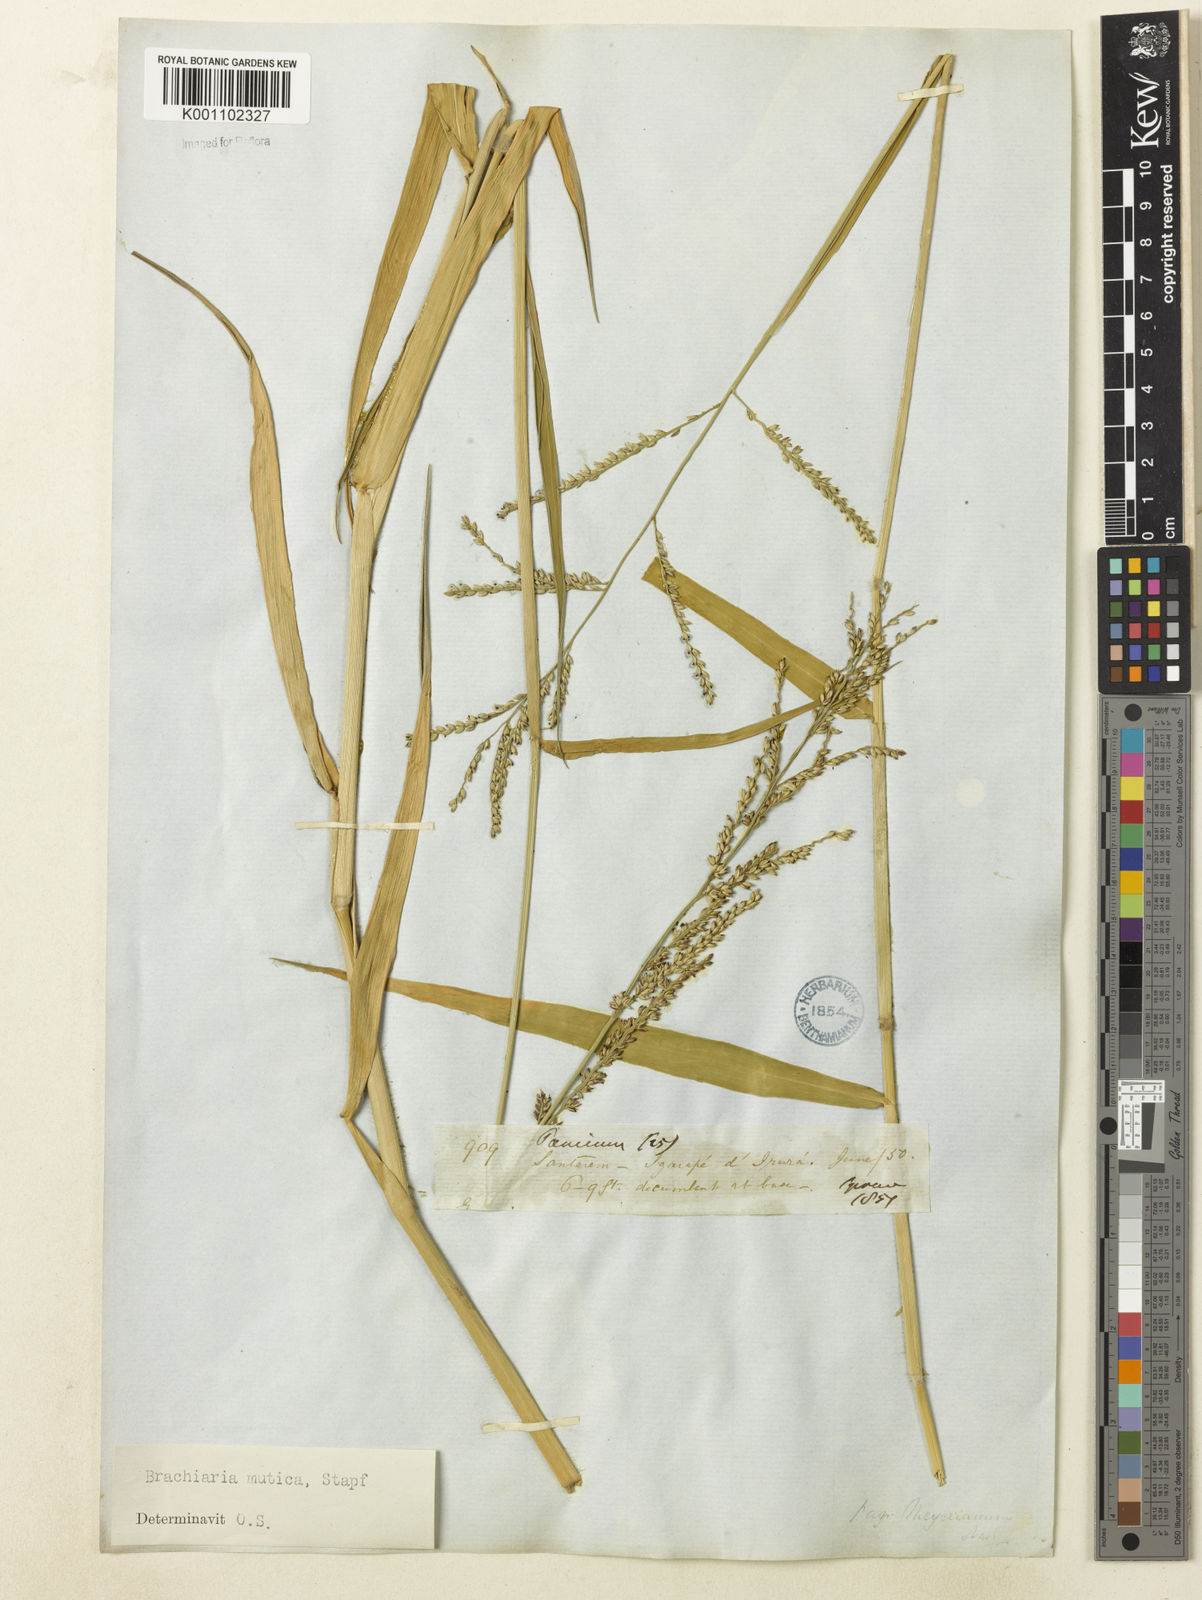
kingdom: Plantae
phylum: Tracheophyta
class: Liliopsida
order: Poales
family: Poaceae
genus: Urochloa
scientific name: Urochloa mutica
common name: Para grass
